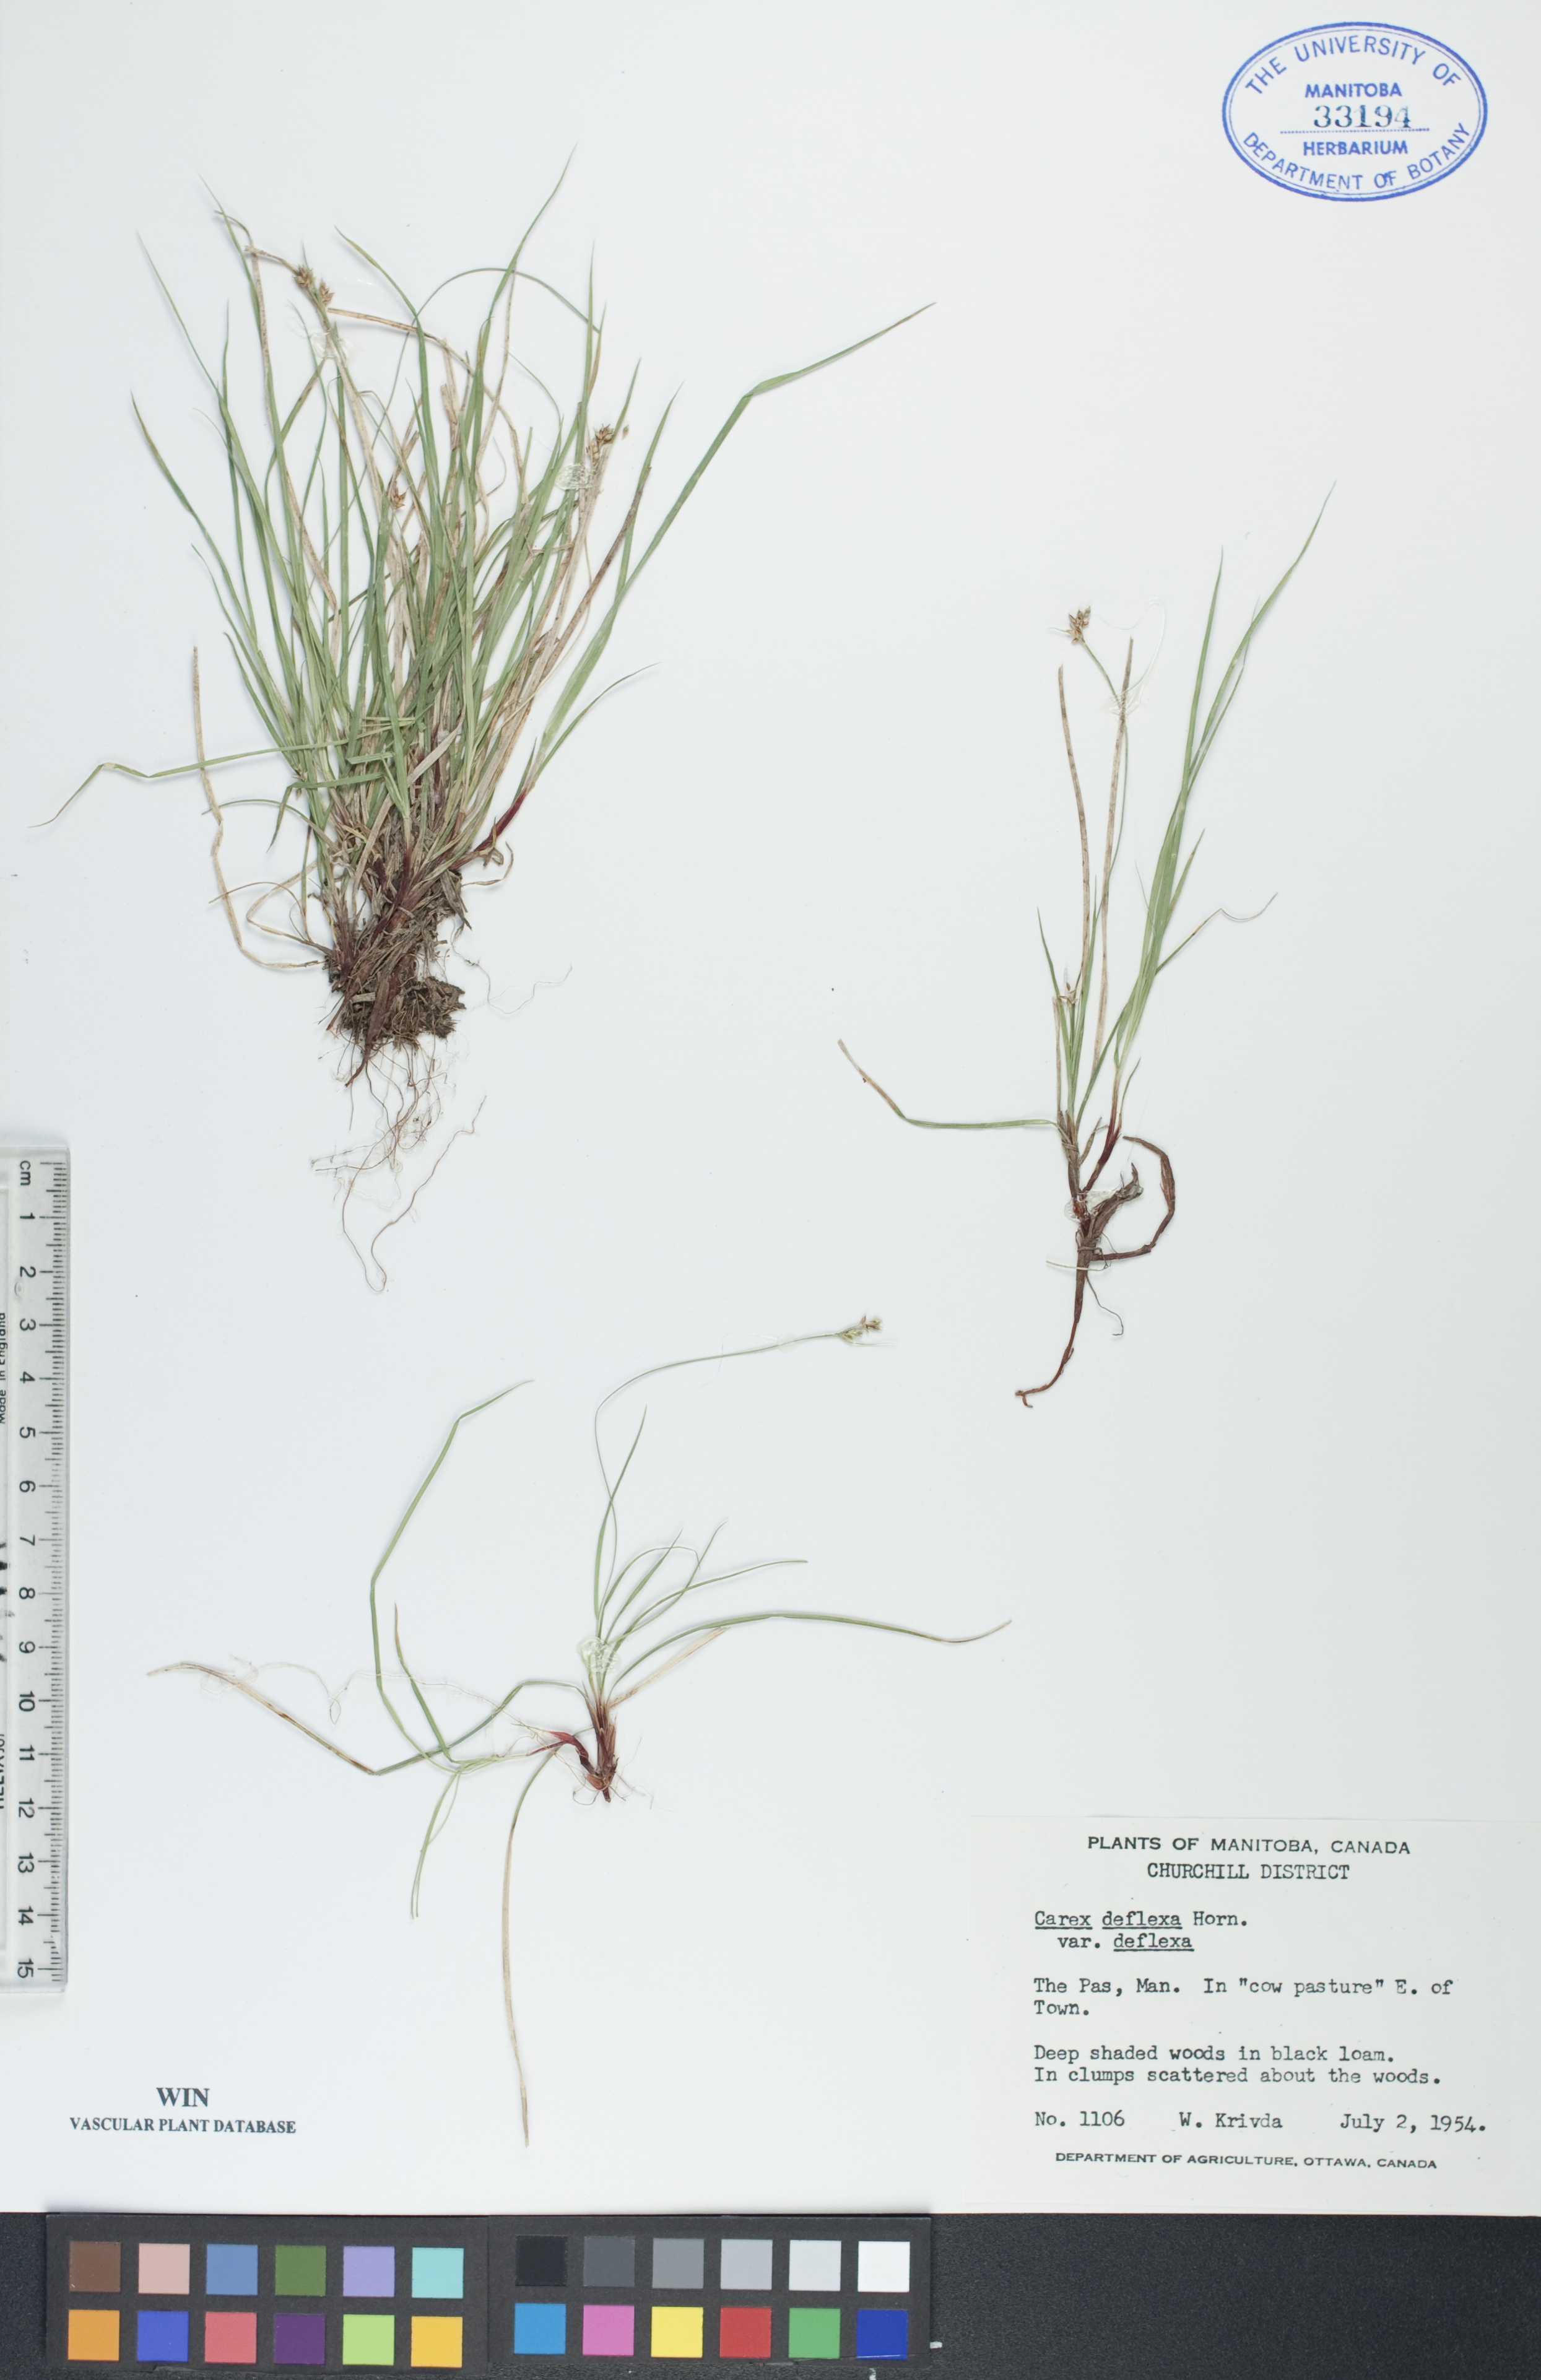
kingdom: Plantae
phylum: Tracheophyta
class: Liliopsida
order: Poales
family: Cyperaceae
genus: Carex
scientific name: Carex deflexa
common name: Bent northern sedge
